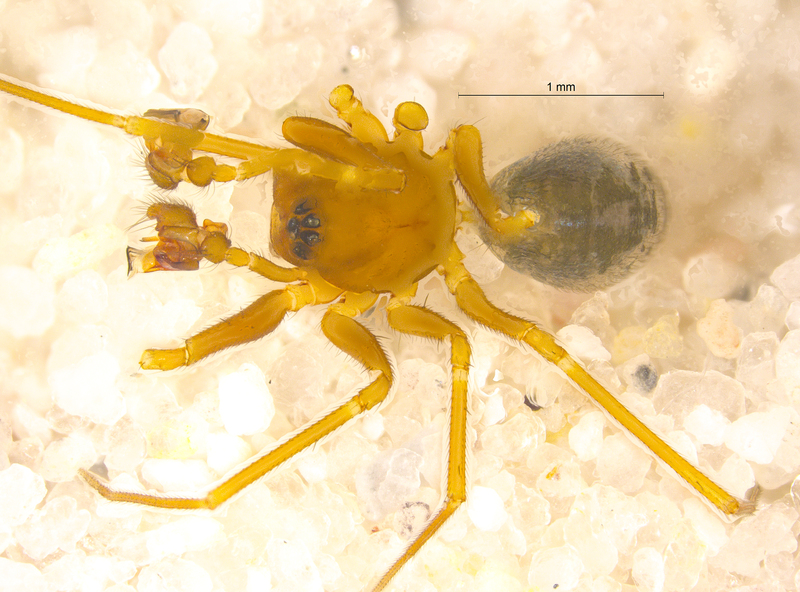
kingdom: Animalia
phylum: Arthropoda
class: Arachnida
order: Araneae
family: Linyphiidae
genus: Diplostyla
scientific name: Diplostyla concolor
